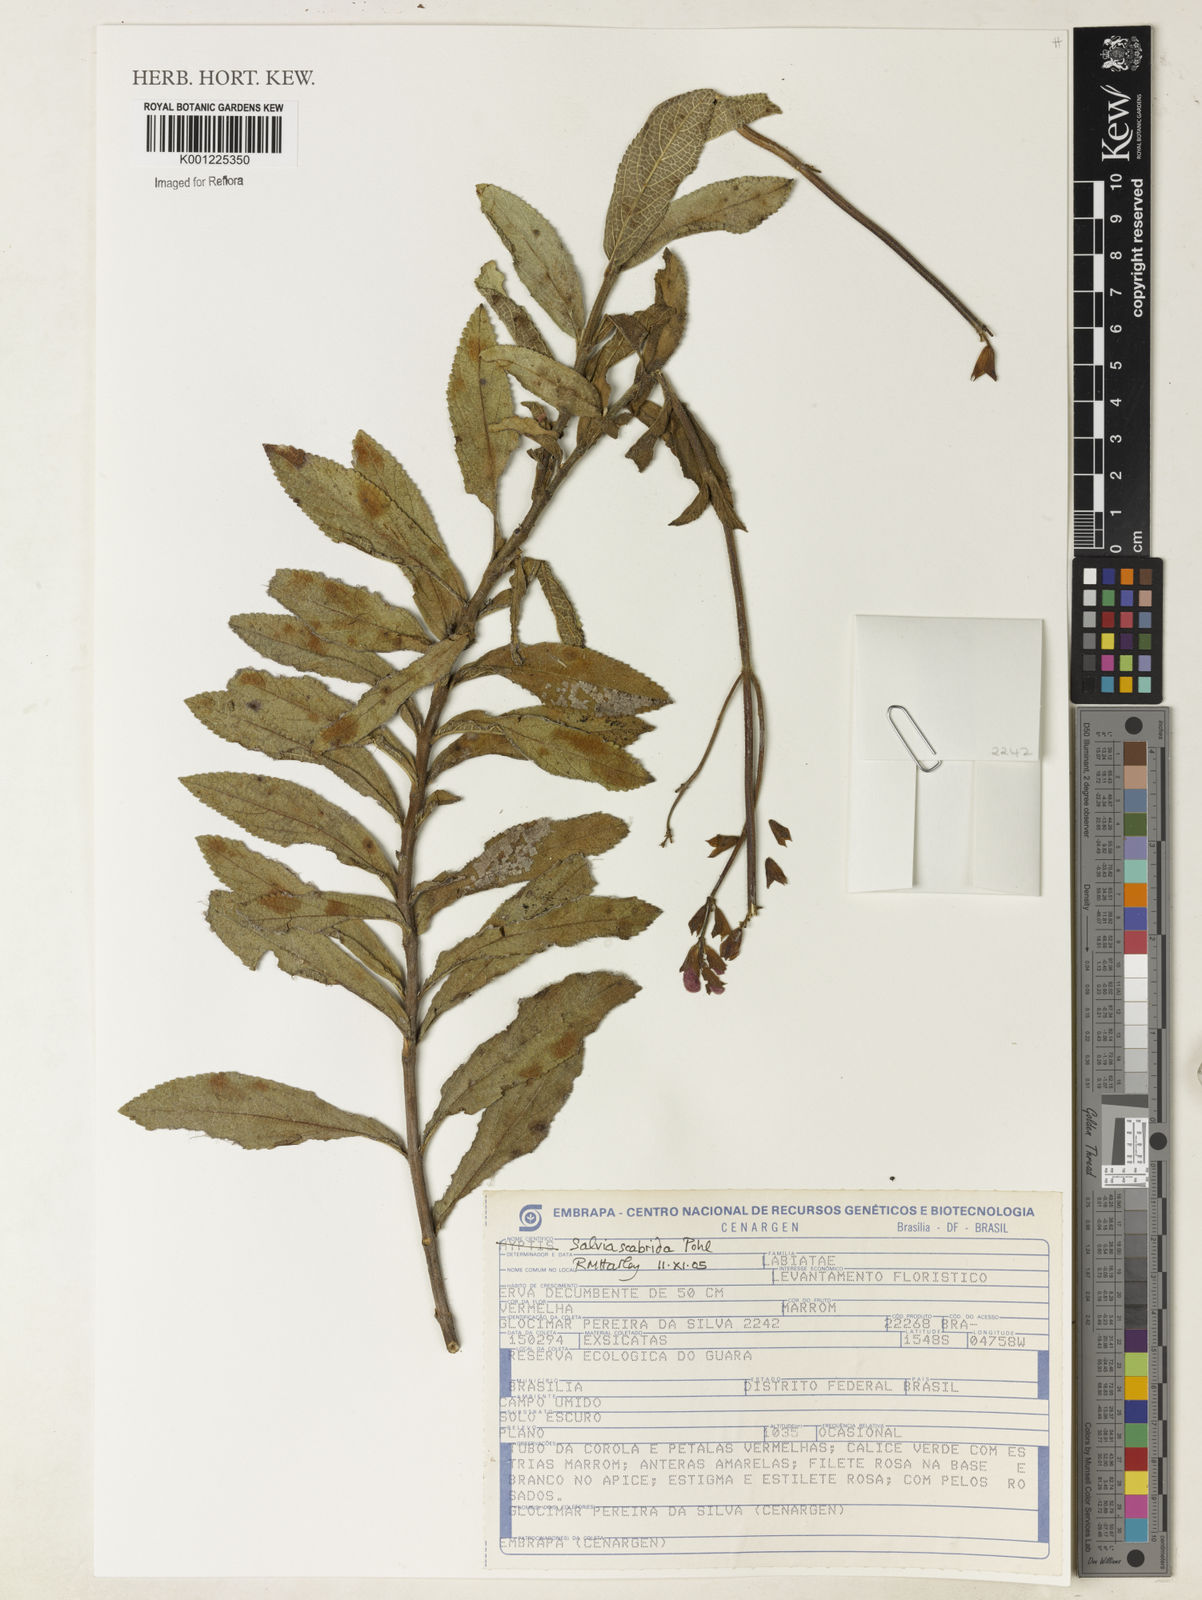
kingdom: Plantae
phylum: Tracheophyta
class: Magnoliopsida
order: Lamiales
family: Lamiaceae
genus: Salvia
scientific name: Salvia scabrida
